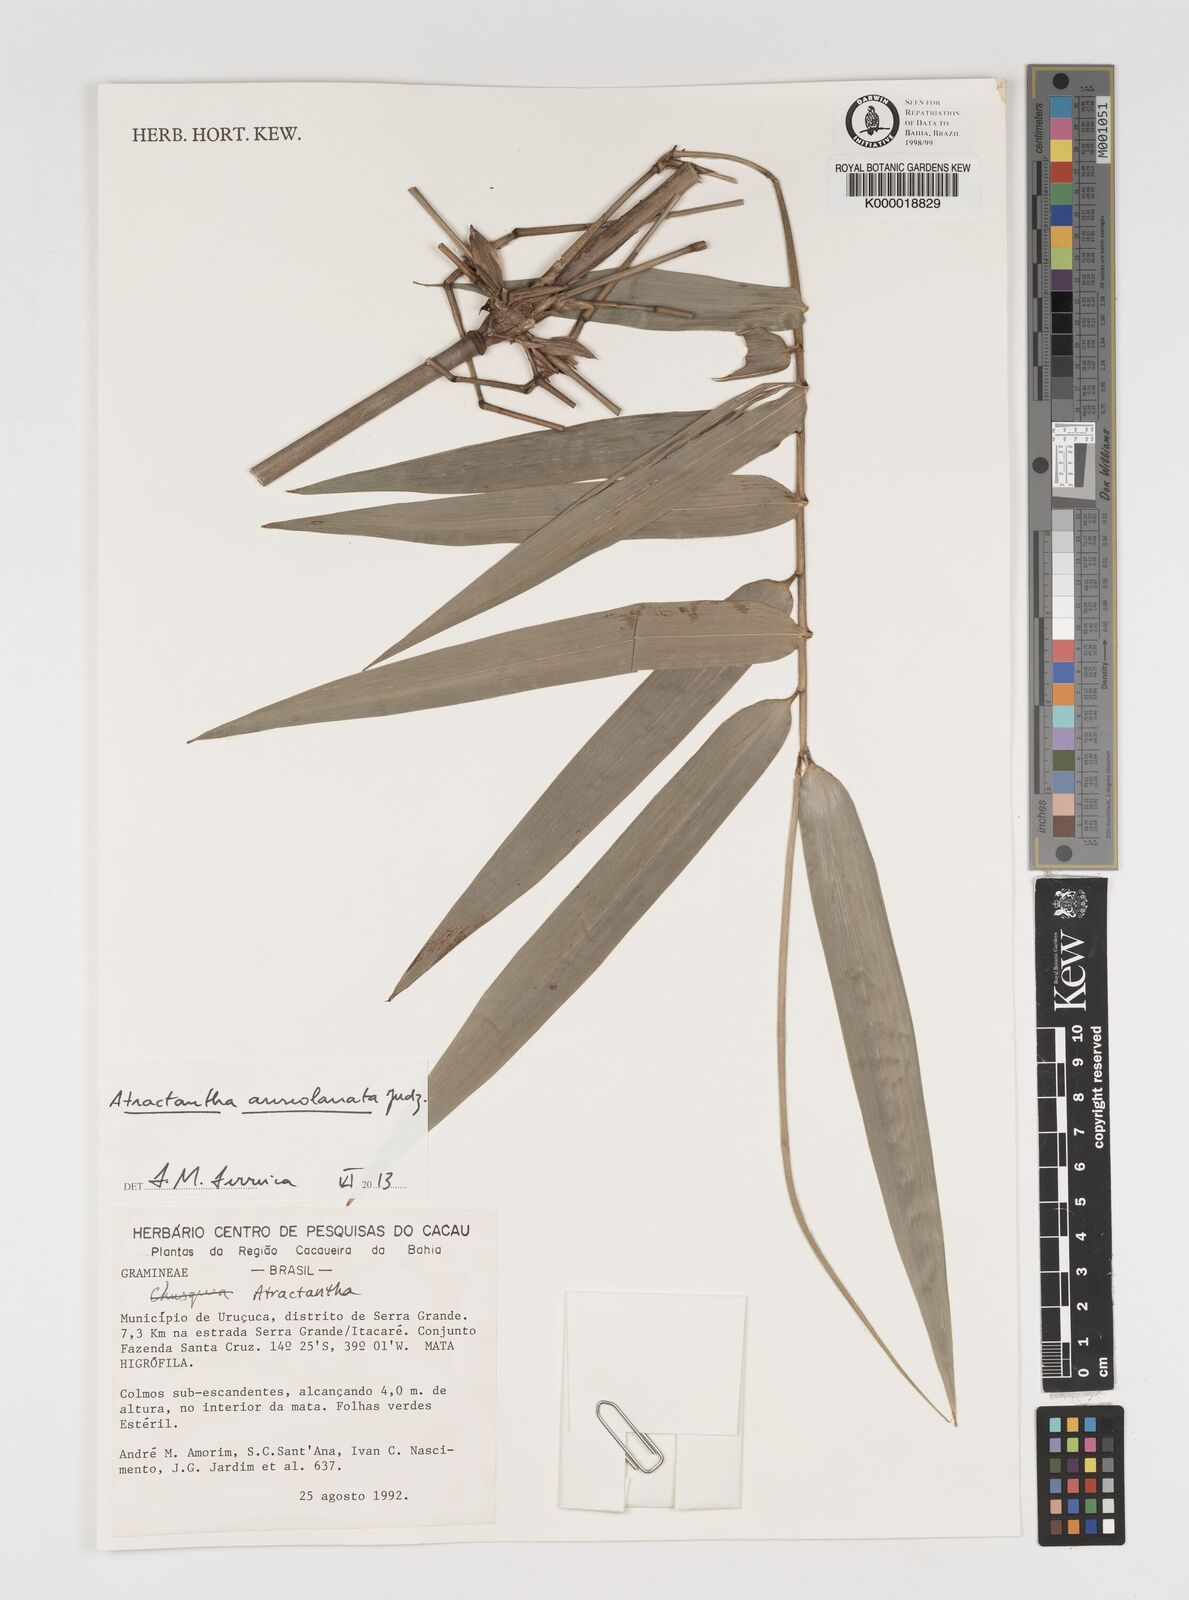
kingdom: Plantae
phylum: Tracheophyta
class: Liliopsida
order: Poales
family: Poaceae
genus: Atractantha
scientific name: Atractantha
